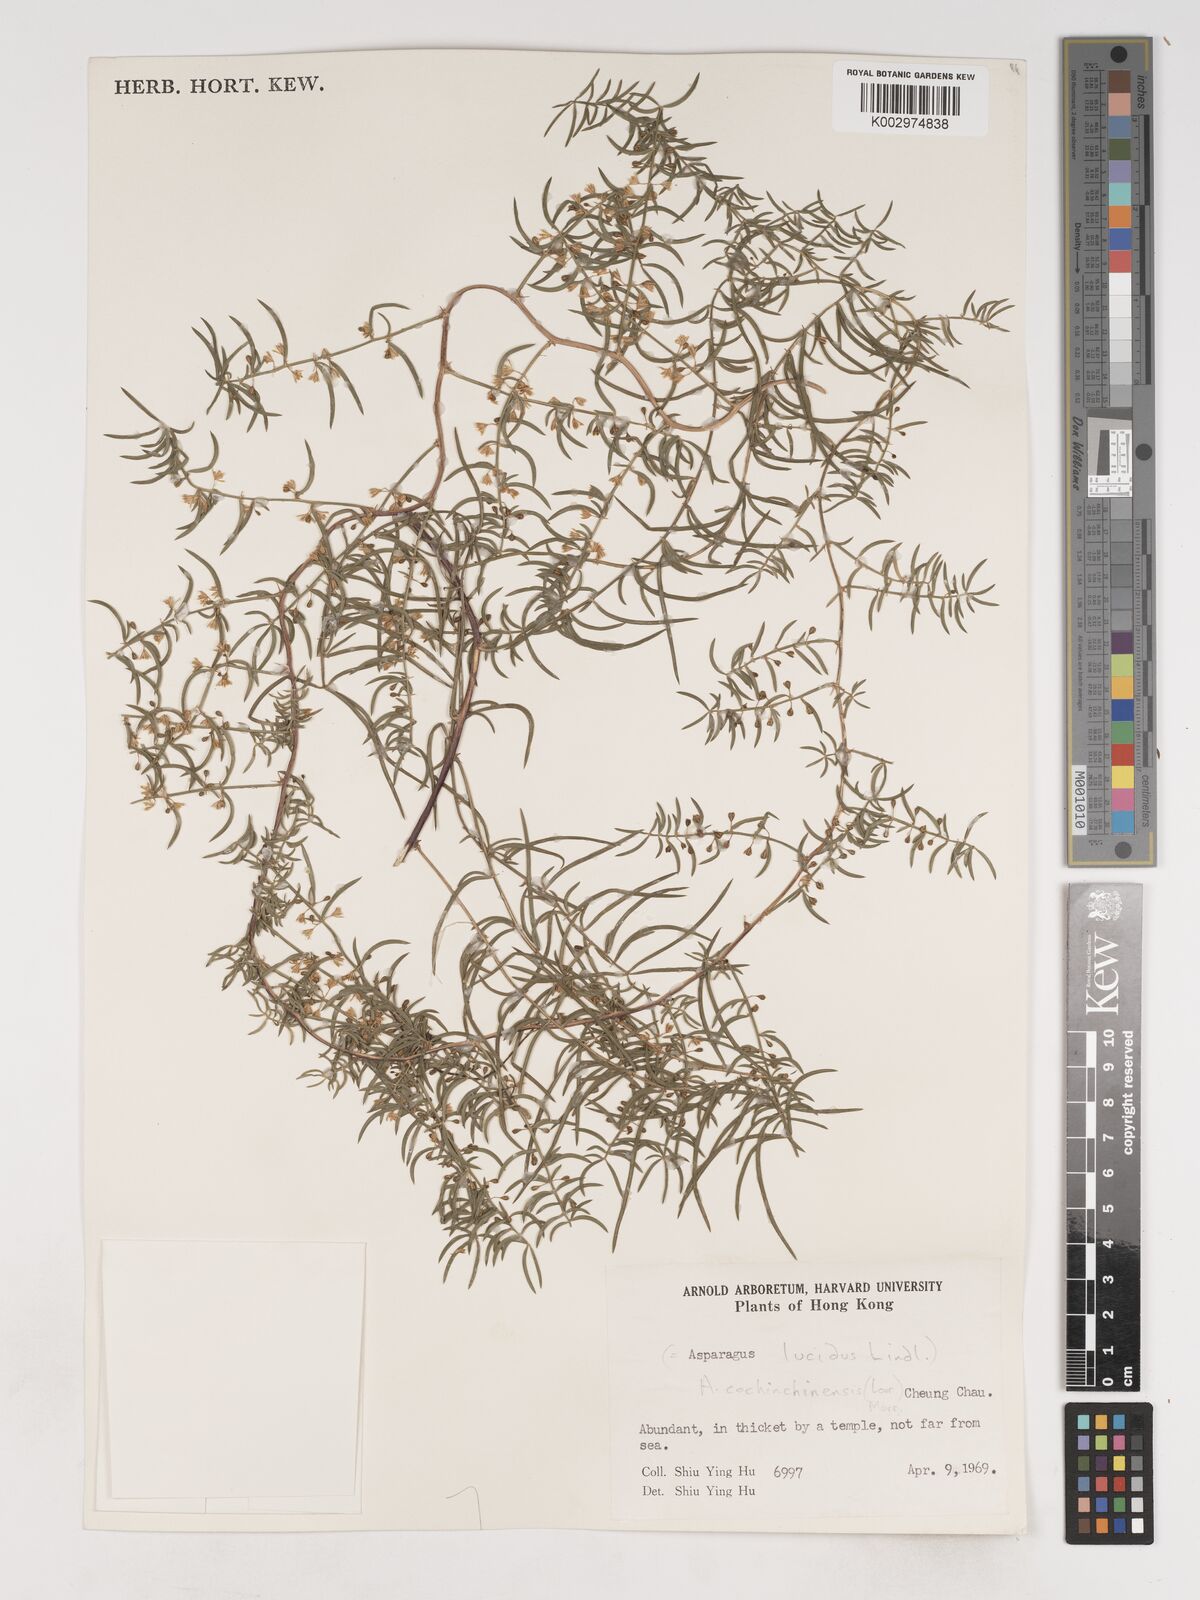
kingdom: Plantae
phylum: Tracheophyta
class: Liliopsida
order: Asparagales
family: Asparagaceae
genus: Asparagus
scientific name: Asparagus cochinchinensis
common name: Chinese asparagus
